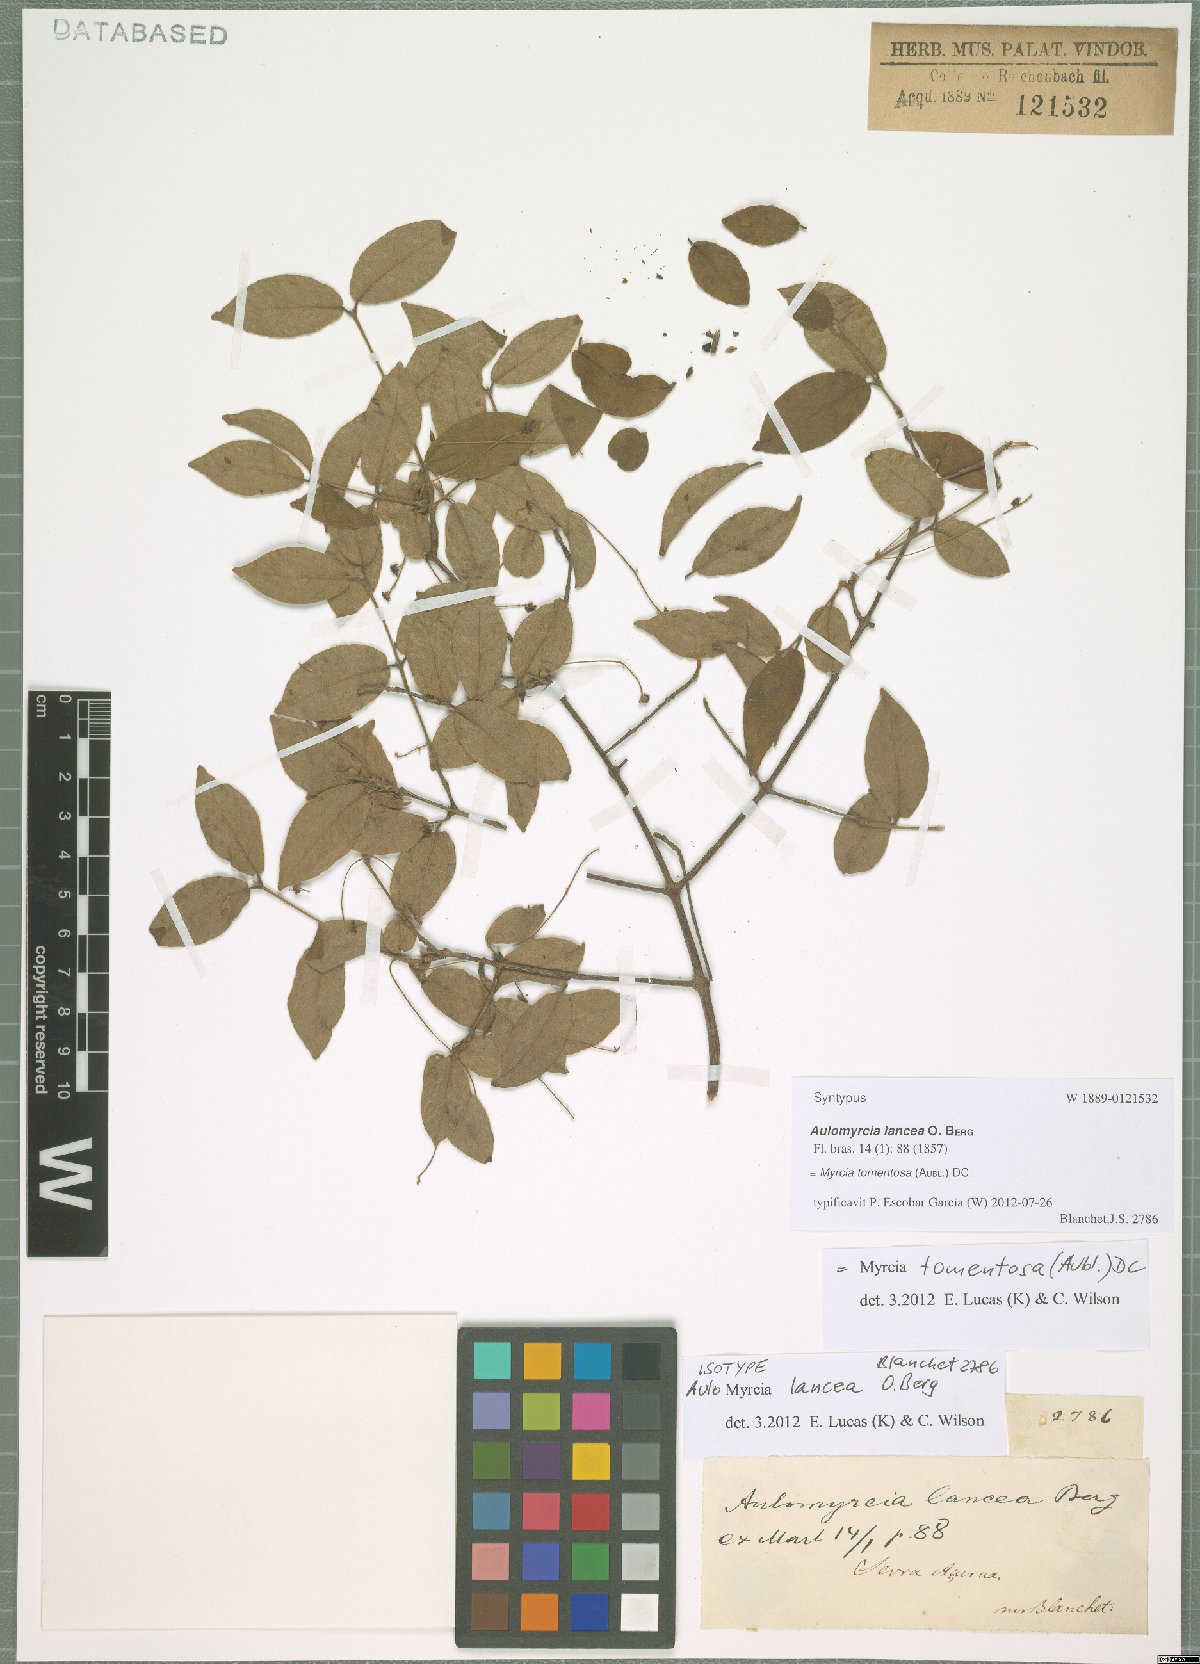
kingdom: Plantae
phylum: Tracheophyta
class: Magnoliopsida
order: Myrtales
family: Myrtaceae
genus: Myrcia
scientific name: Myrcia tomentosa
